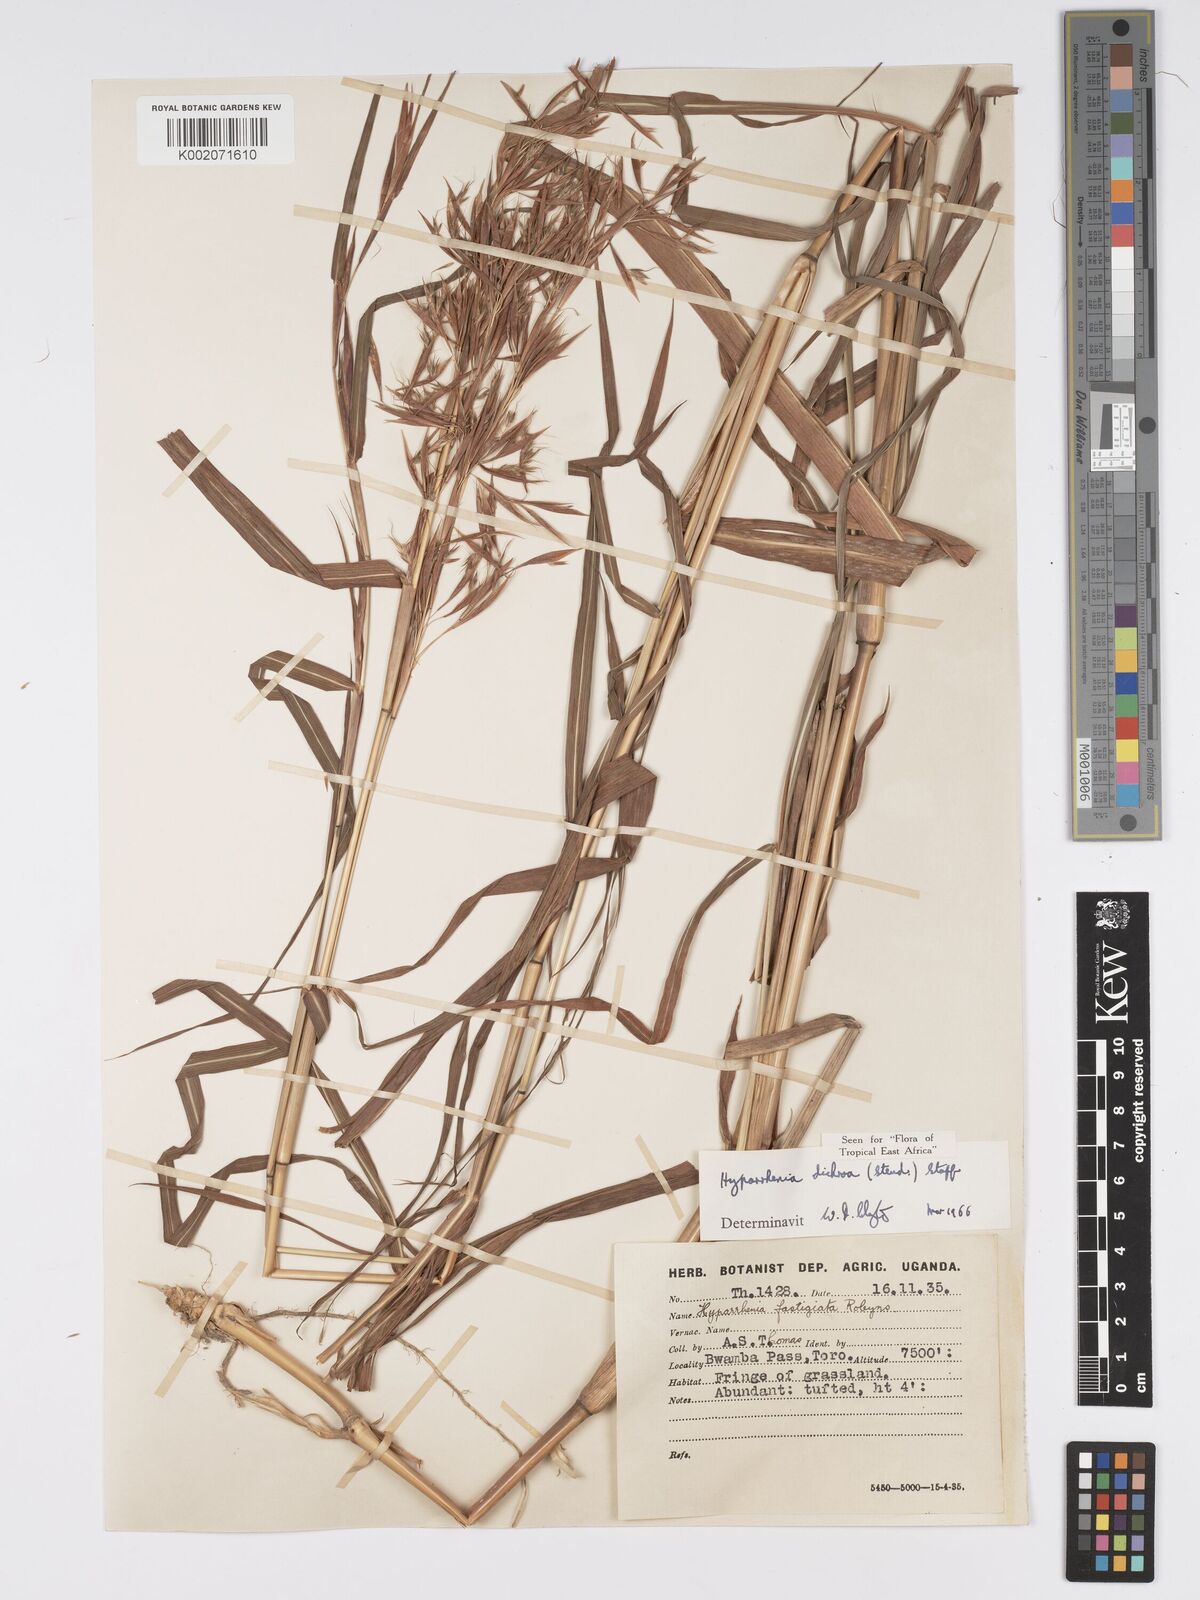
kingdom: Plantae
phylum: Tracheophyta
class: Liliopsida
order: Poales
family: Poaceae
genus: Hyparrhenia
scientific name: Hyparrhenia dichroa
